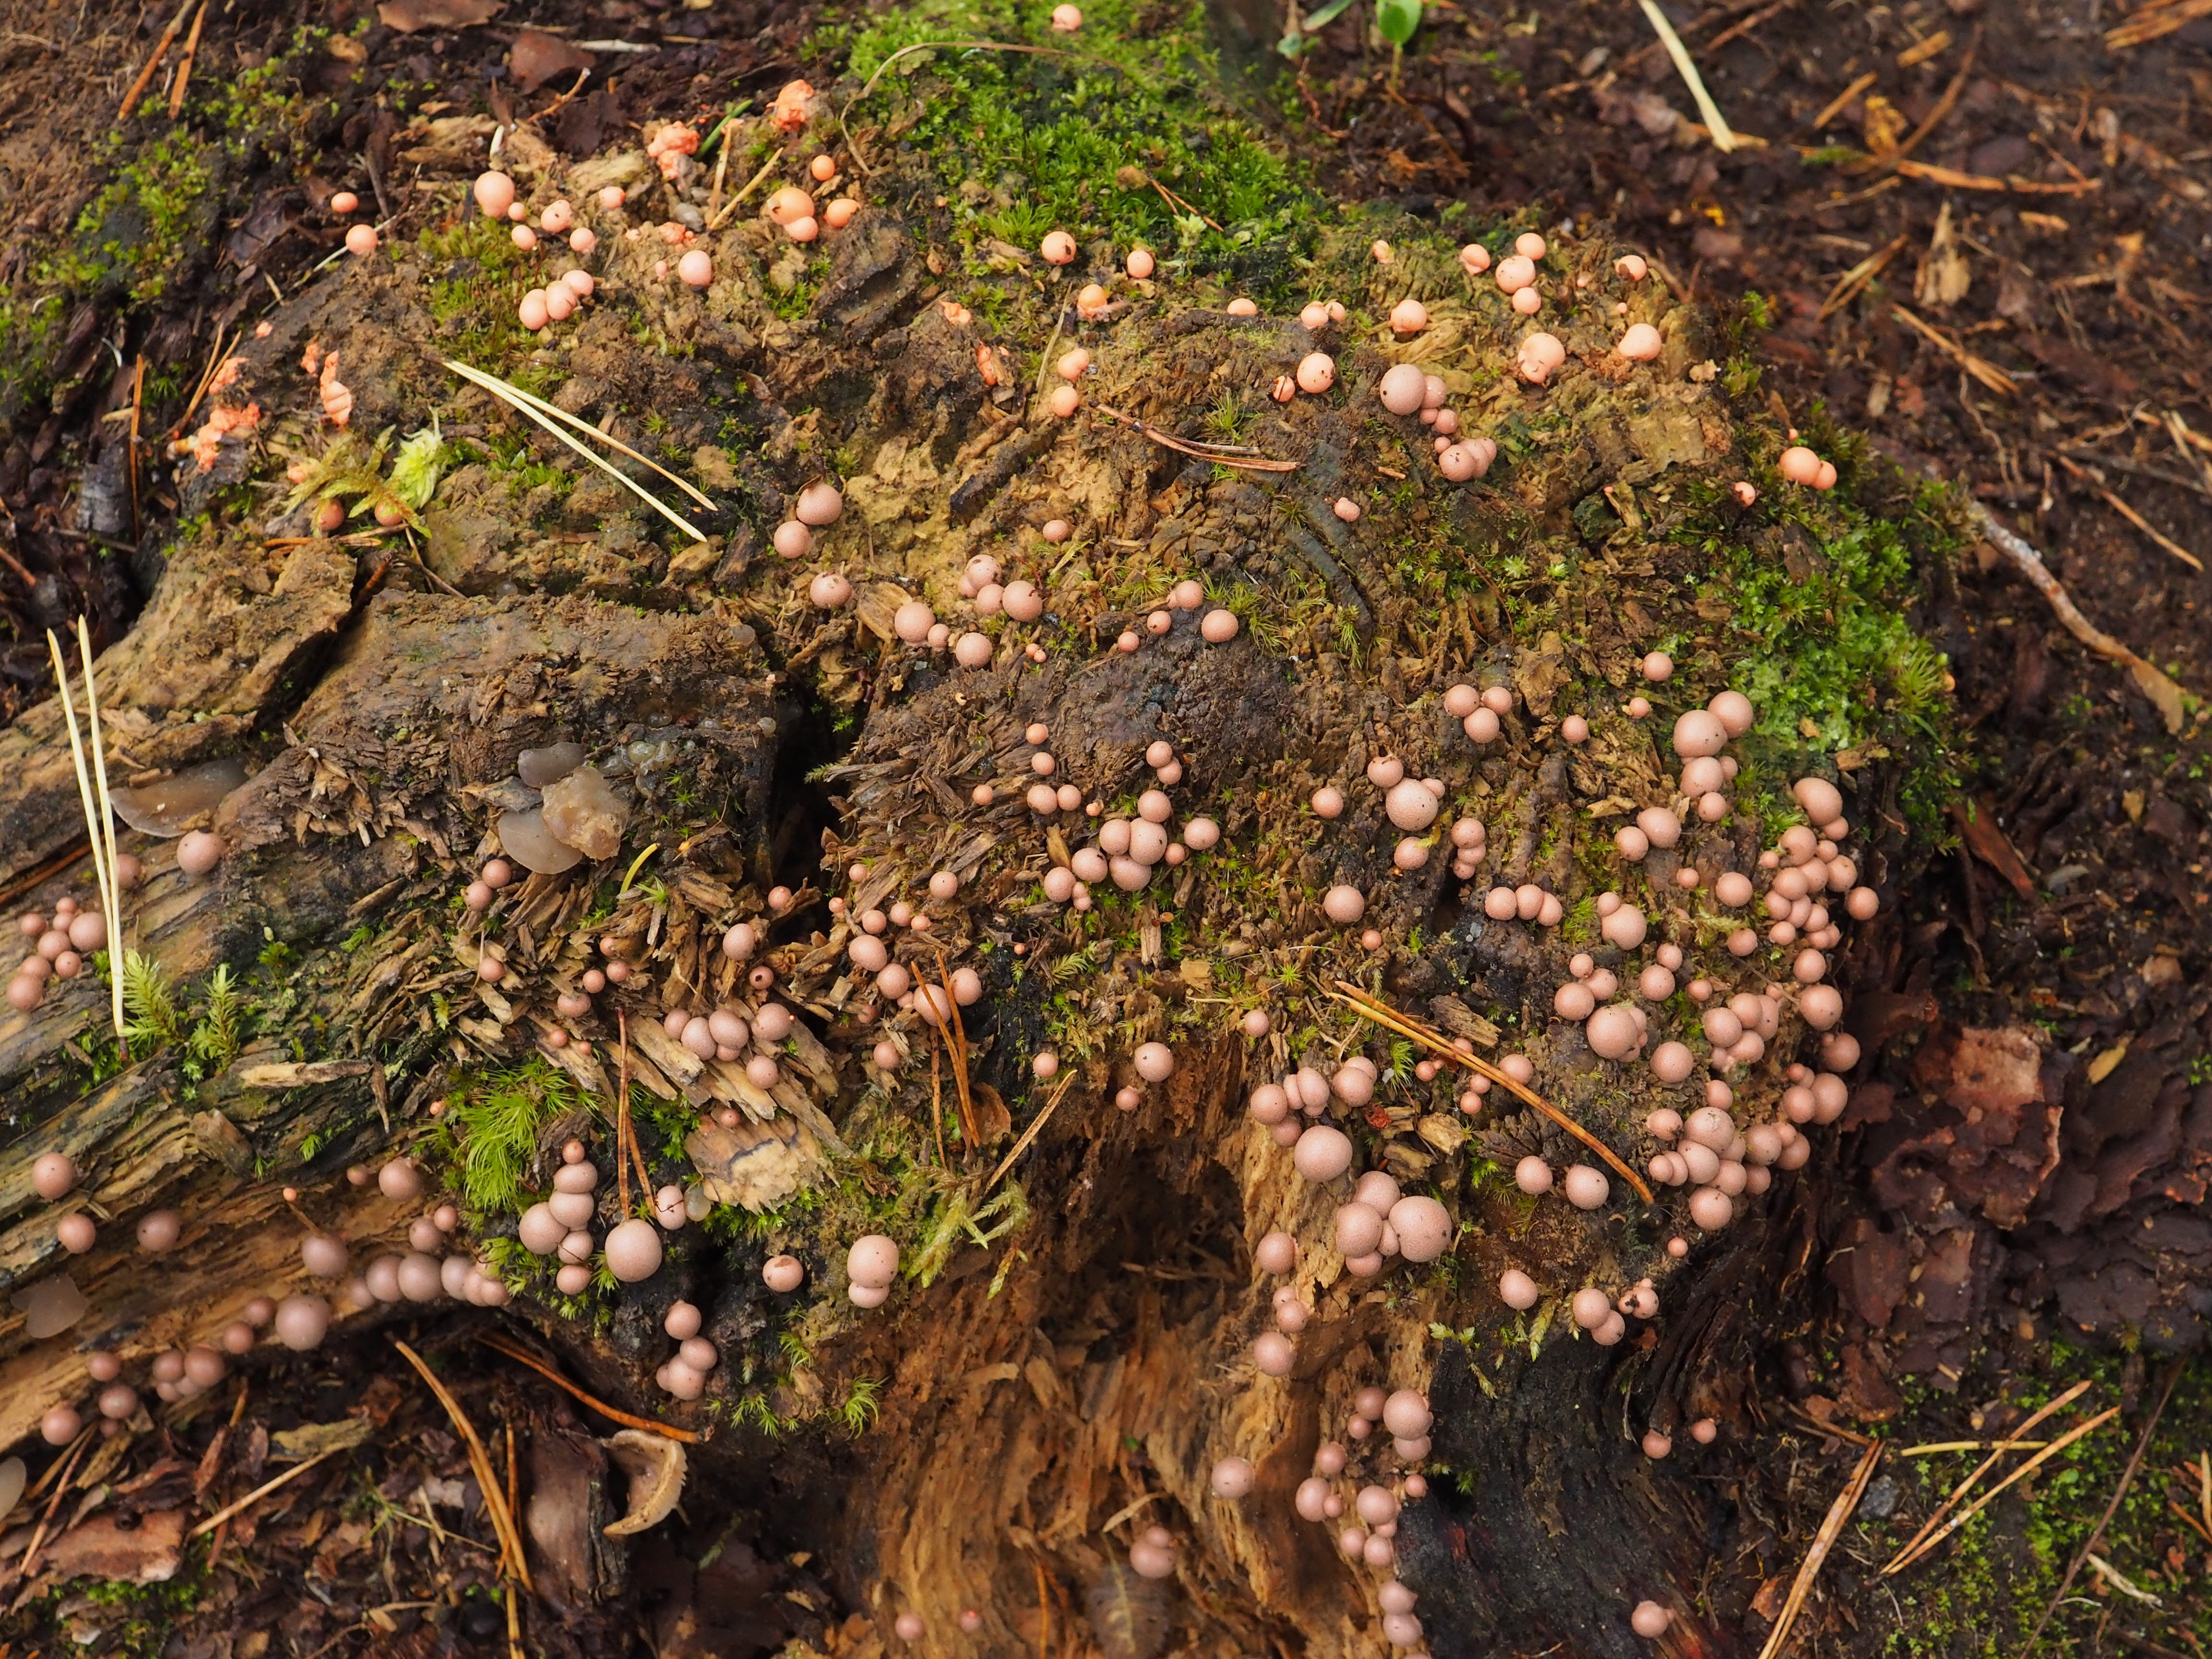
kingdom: Protozoa
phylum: Mycetozoa
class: Myxomycetes
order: Cribrariales
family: Tubiferaceae
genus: Lycogala
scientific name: Lycogala epidendrum
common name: Wolf's milk
